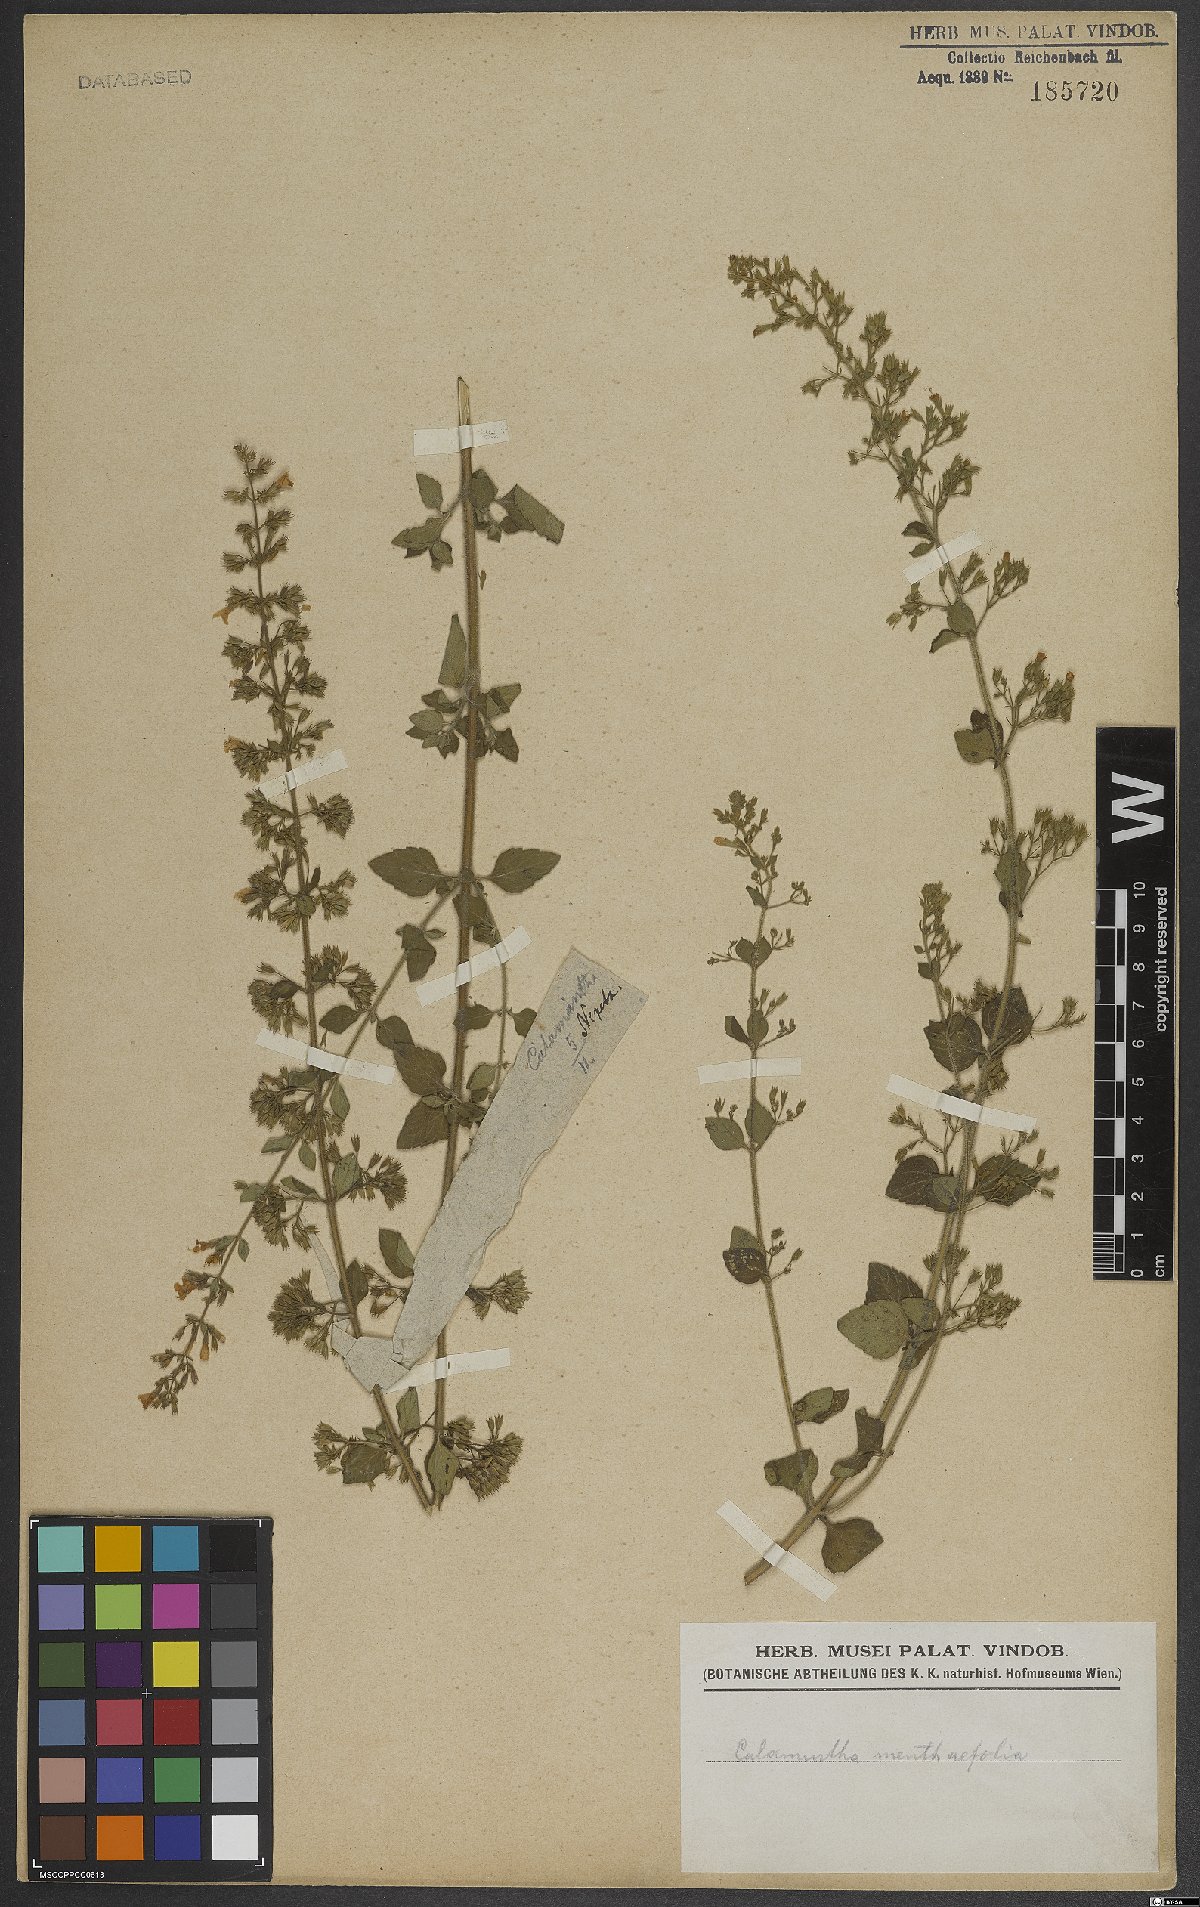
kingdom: Plantae
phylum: Tracheophyta
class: Magnoliopsida
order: Lamiales
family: Lamiaceae
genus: Clinopodium
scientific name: Clinopodium menthifolium
